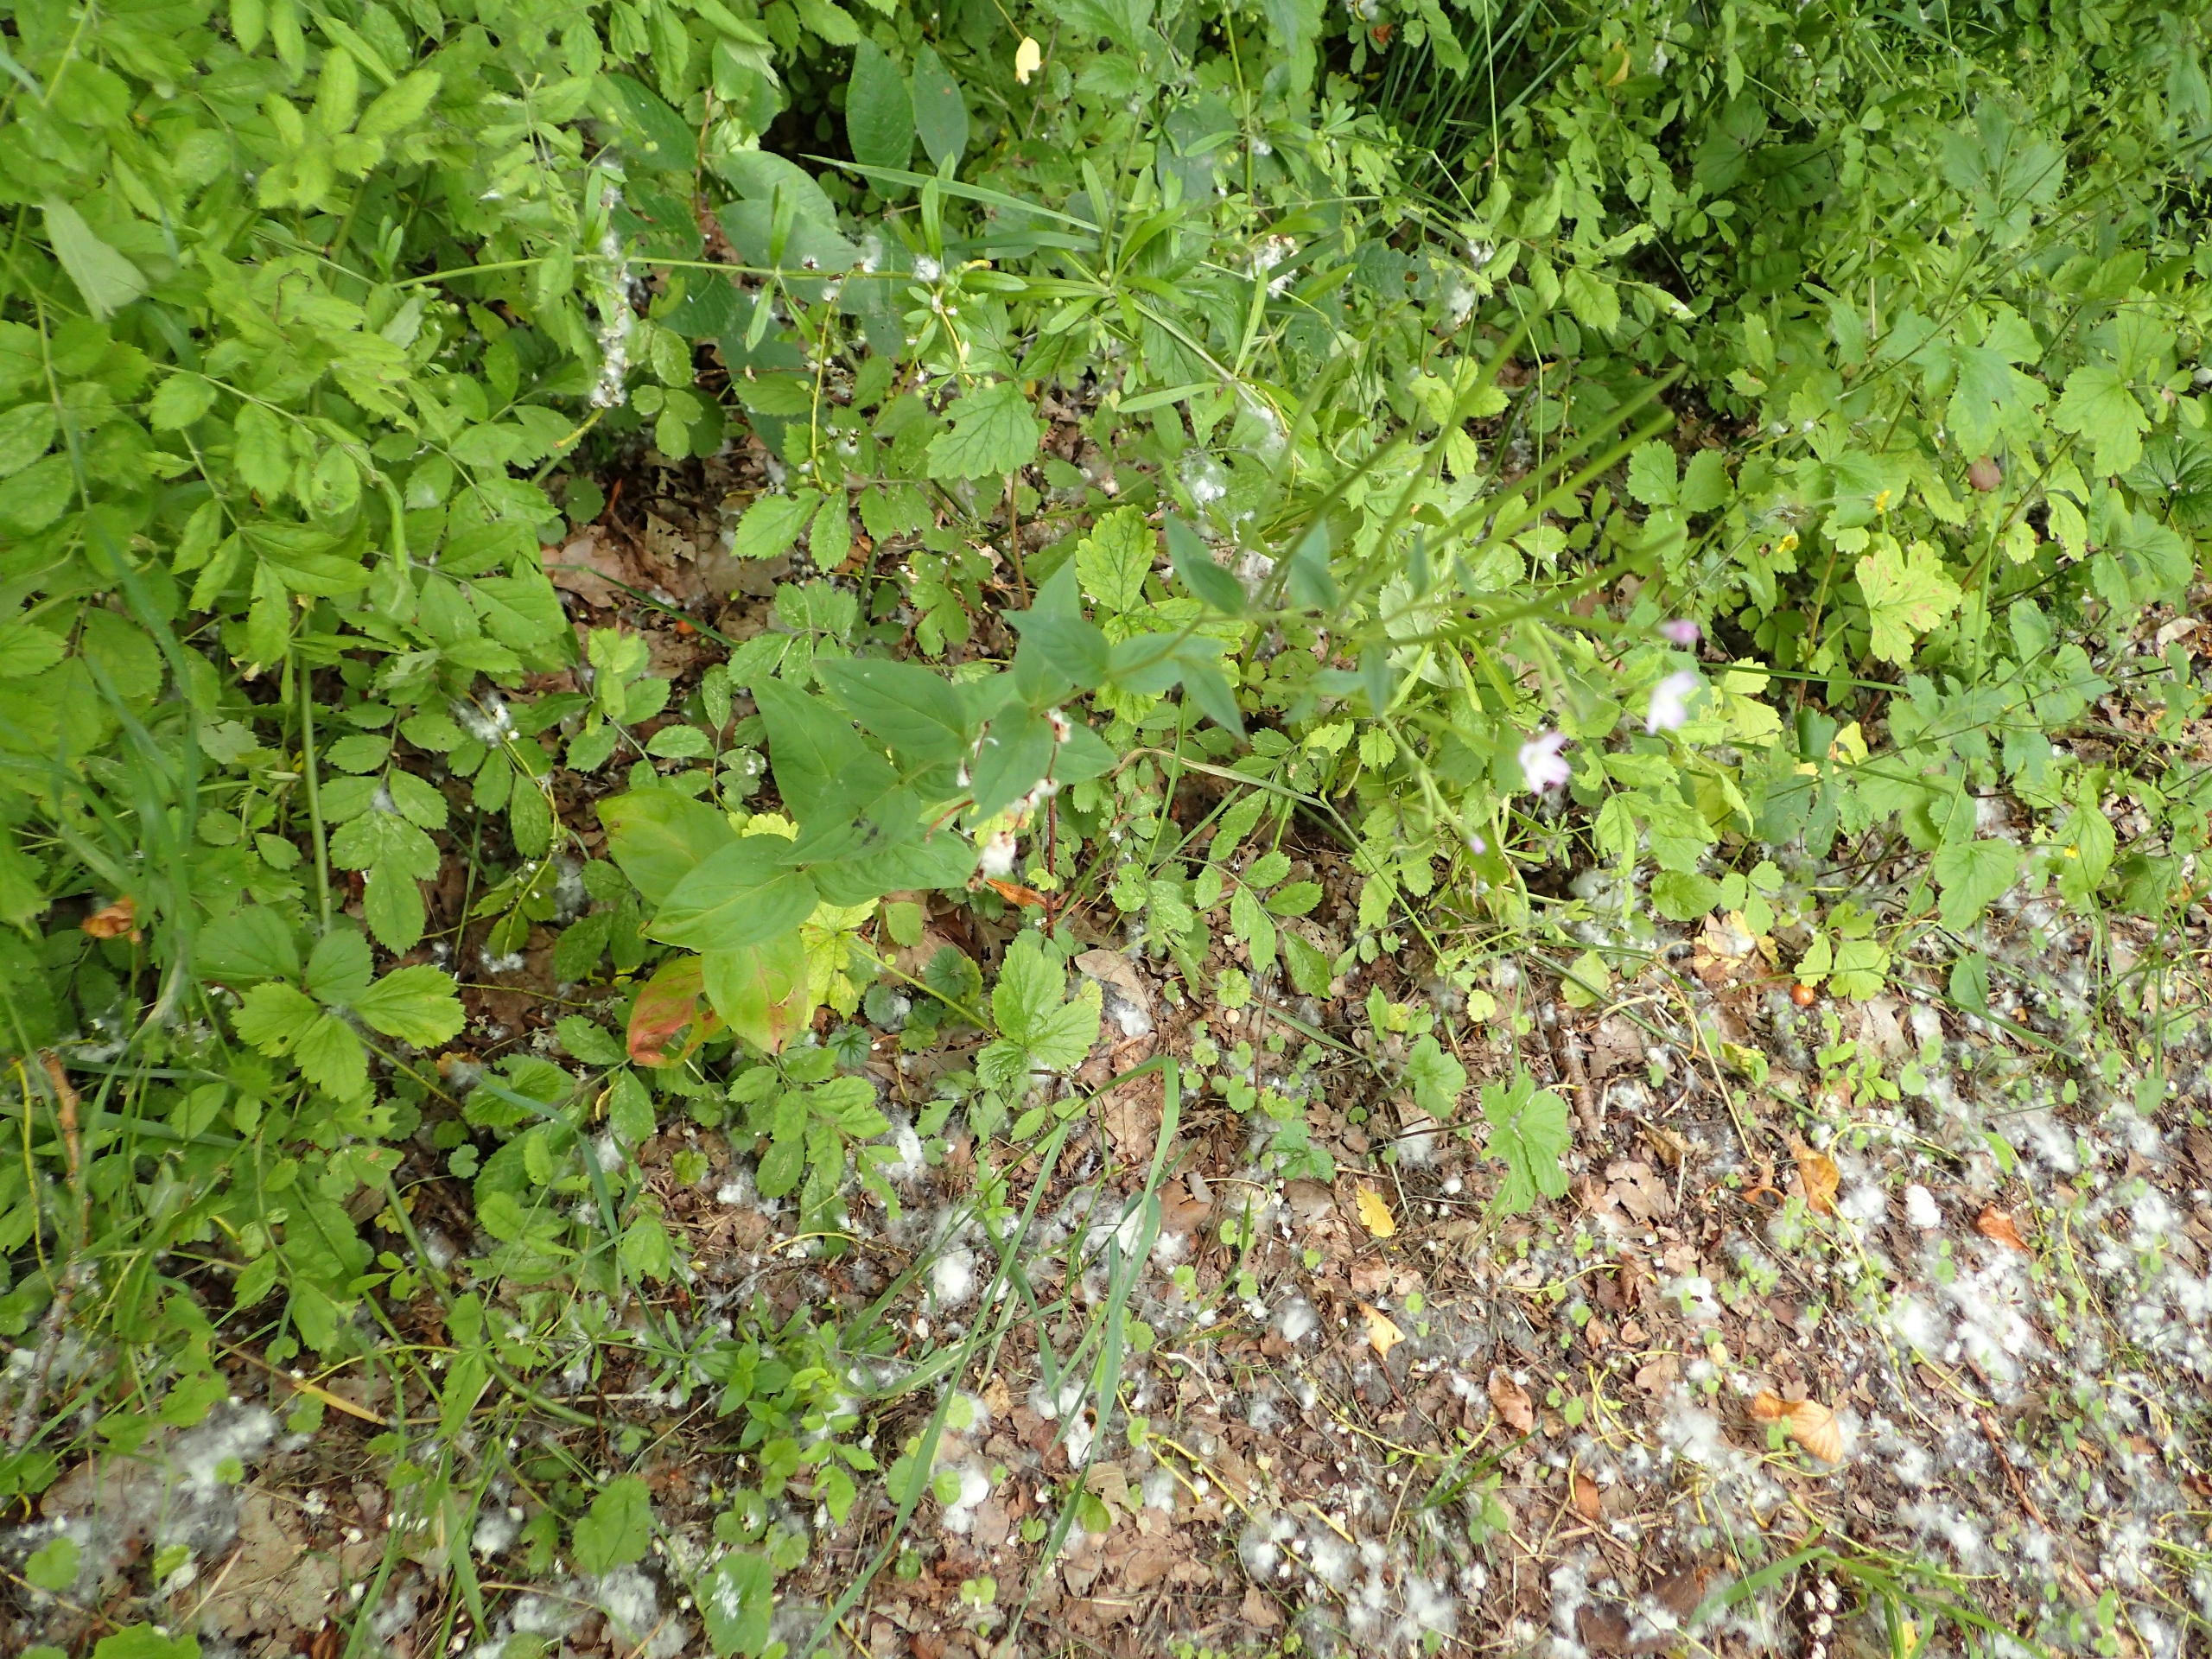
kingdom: Plantae
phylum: Tracheophyta
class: Magnoliopsida
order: Myrtales
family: Onagraceae
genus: Epilobium
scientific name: Epilobium montanum
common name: Glat dueurt
